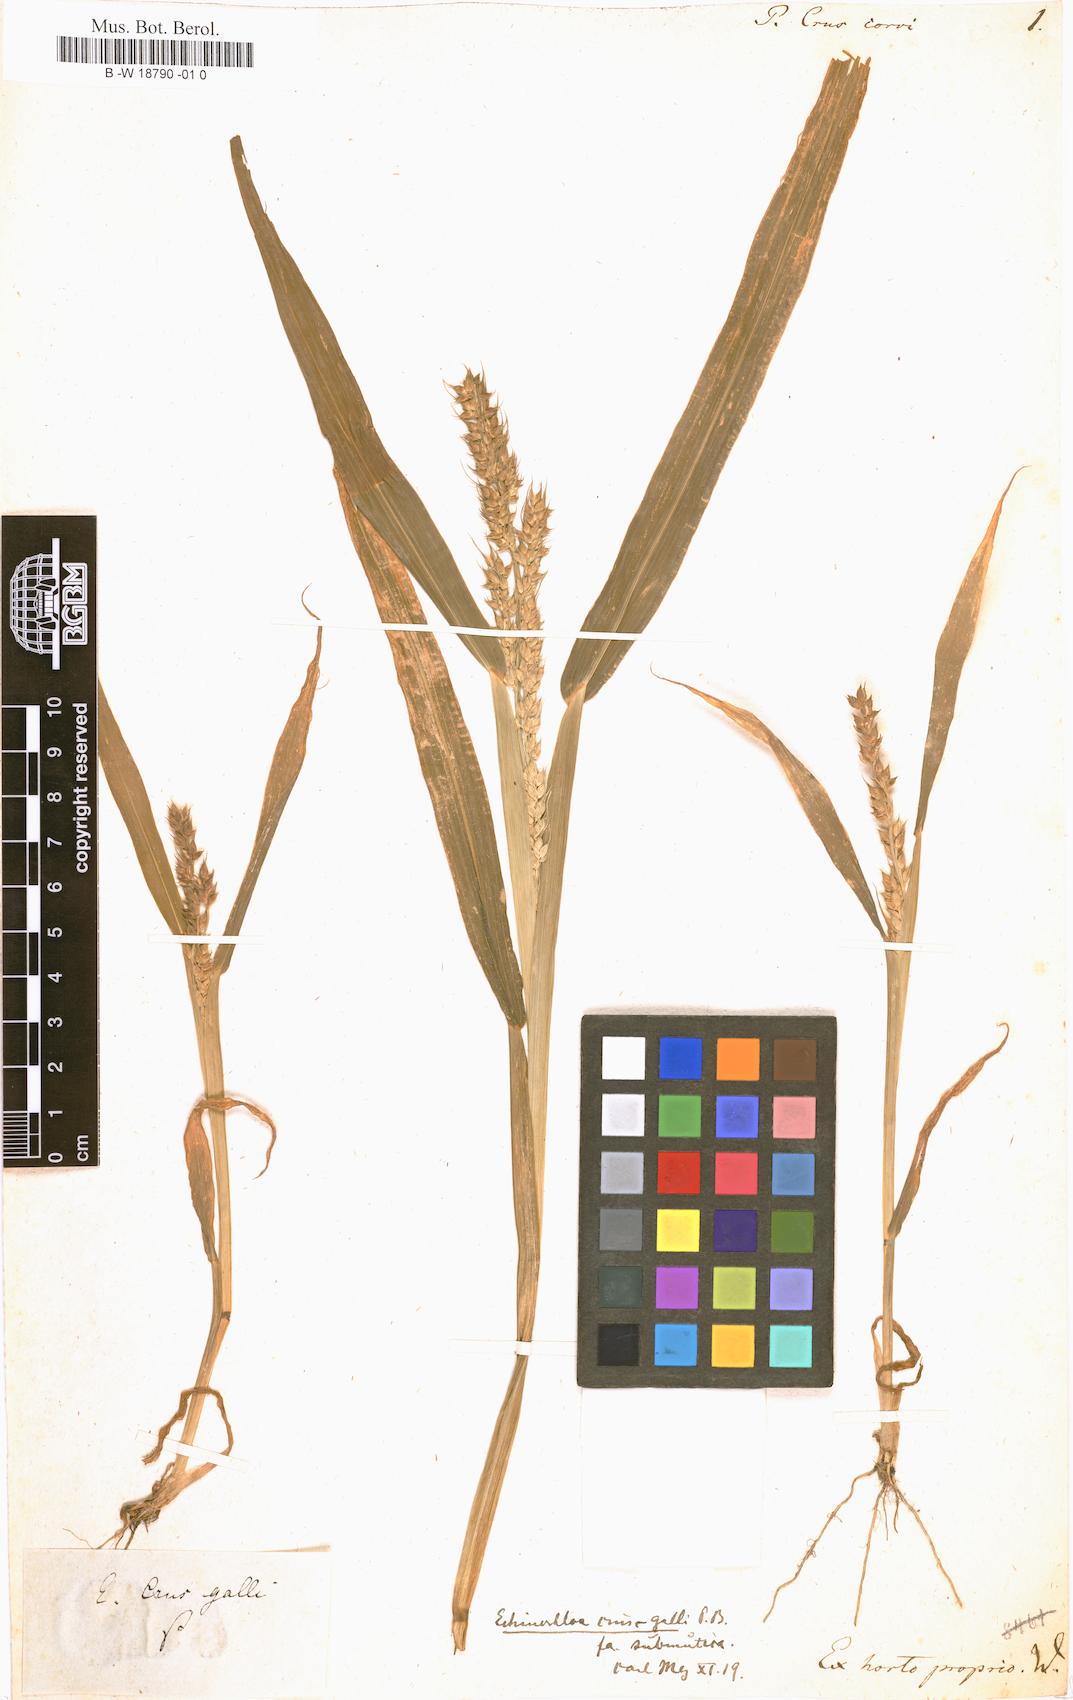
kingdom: Plantae
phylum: Tracheophyta
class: Liliopsida
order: Poales
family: Poaceae
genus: Echinochloa
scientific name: Echinochloa crus-galli
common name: Cockspur
